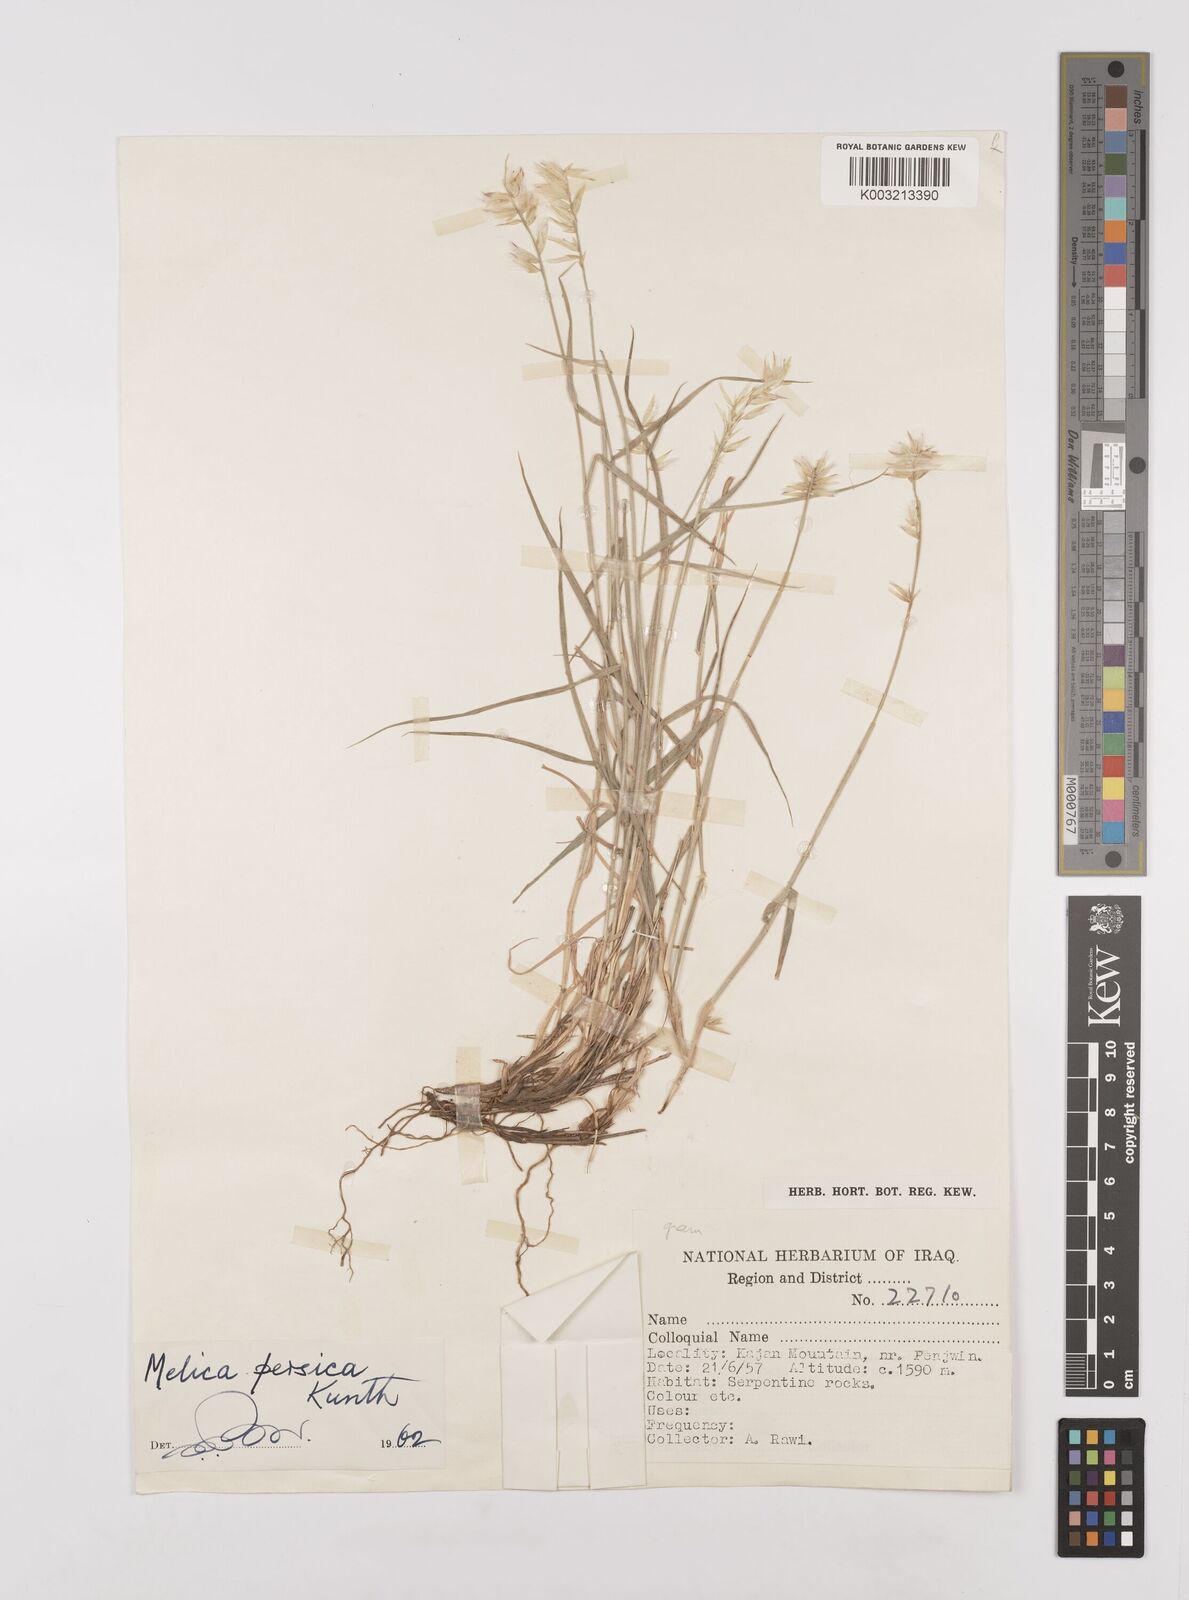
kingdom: Plantae
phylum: Tracheophyta
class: Liliopsida
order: Poales
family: Poaceae
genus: Melica
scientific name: Melica persica
